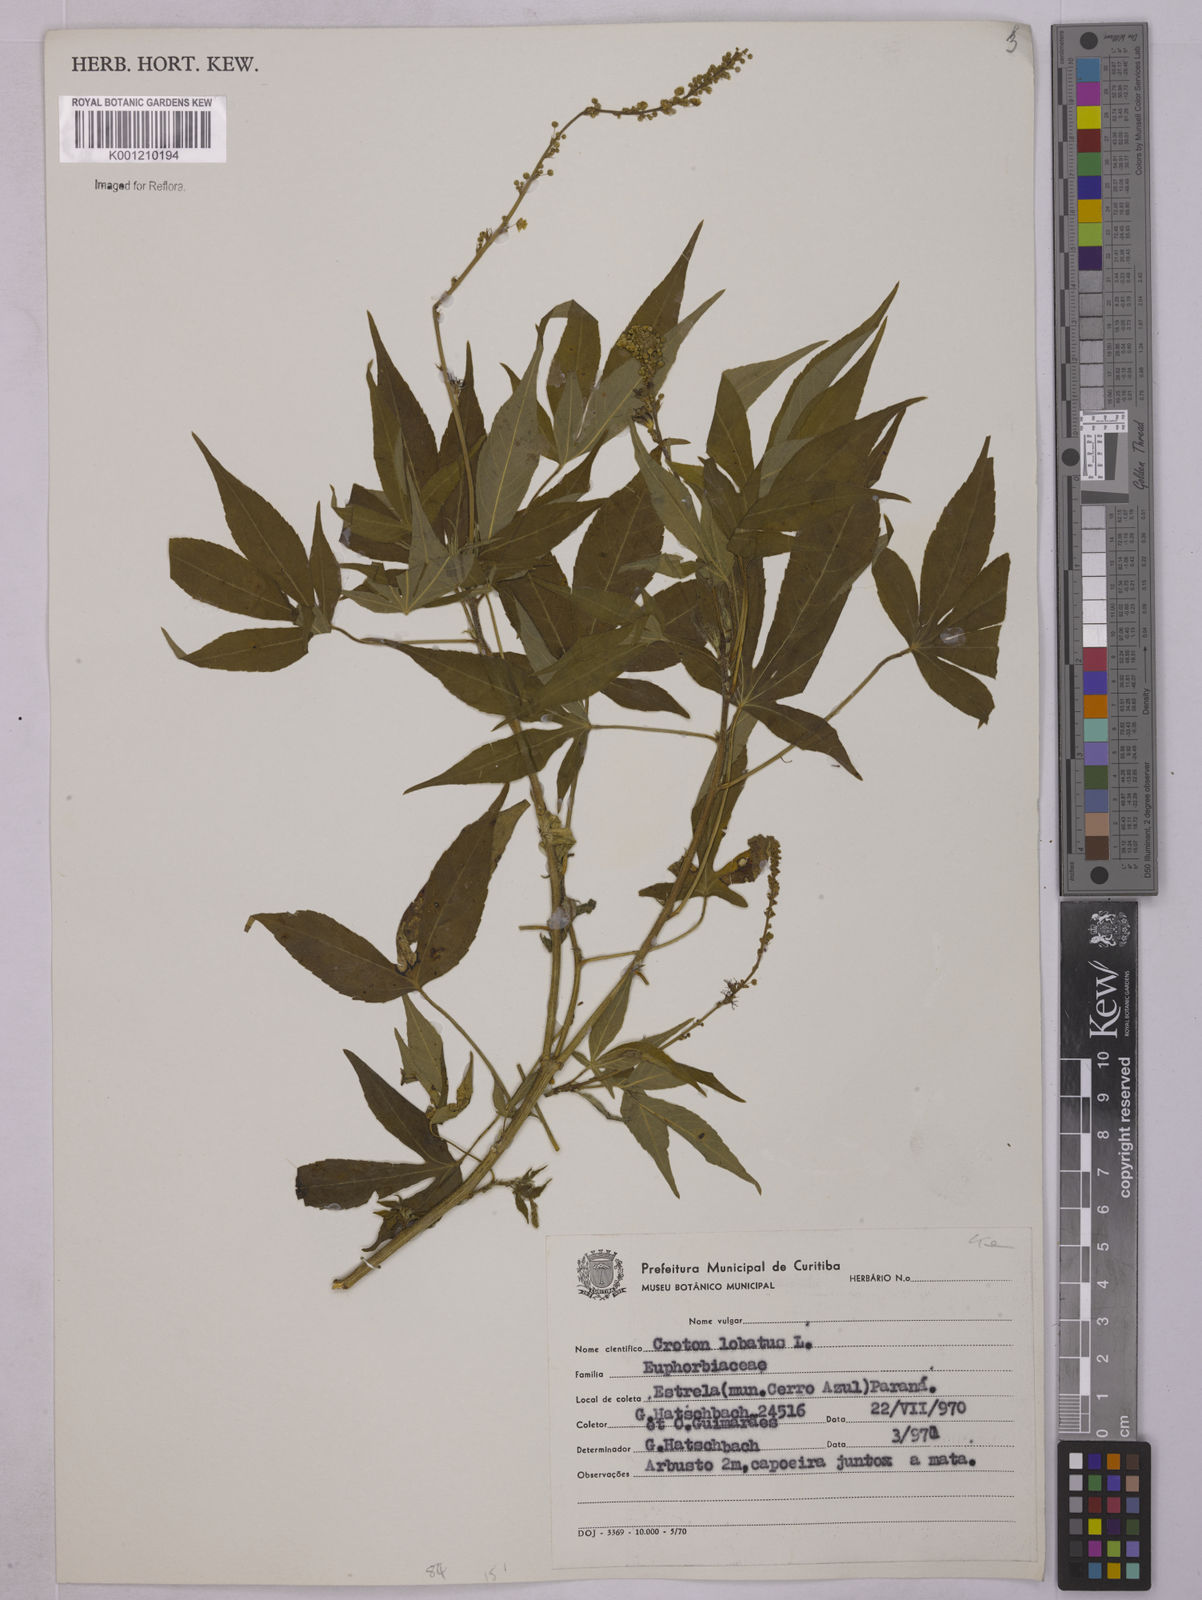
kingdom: Plantae
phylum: Tracheophyta
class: Magnoliopsida
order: Malpighiales
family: Euphorbiaceae
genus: Astraea
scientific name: Astraea lobata
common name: Lobed croton
